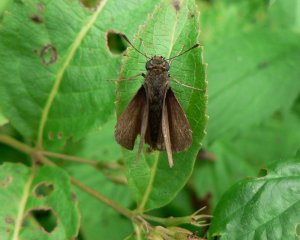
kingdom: Animalia
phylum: Arthropoda
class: Insecta
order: Lepidoptera
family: Hesperiidae
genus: Euphyes
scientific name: Euphyes vestris
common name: Dun Skipper
